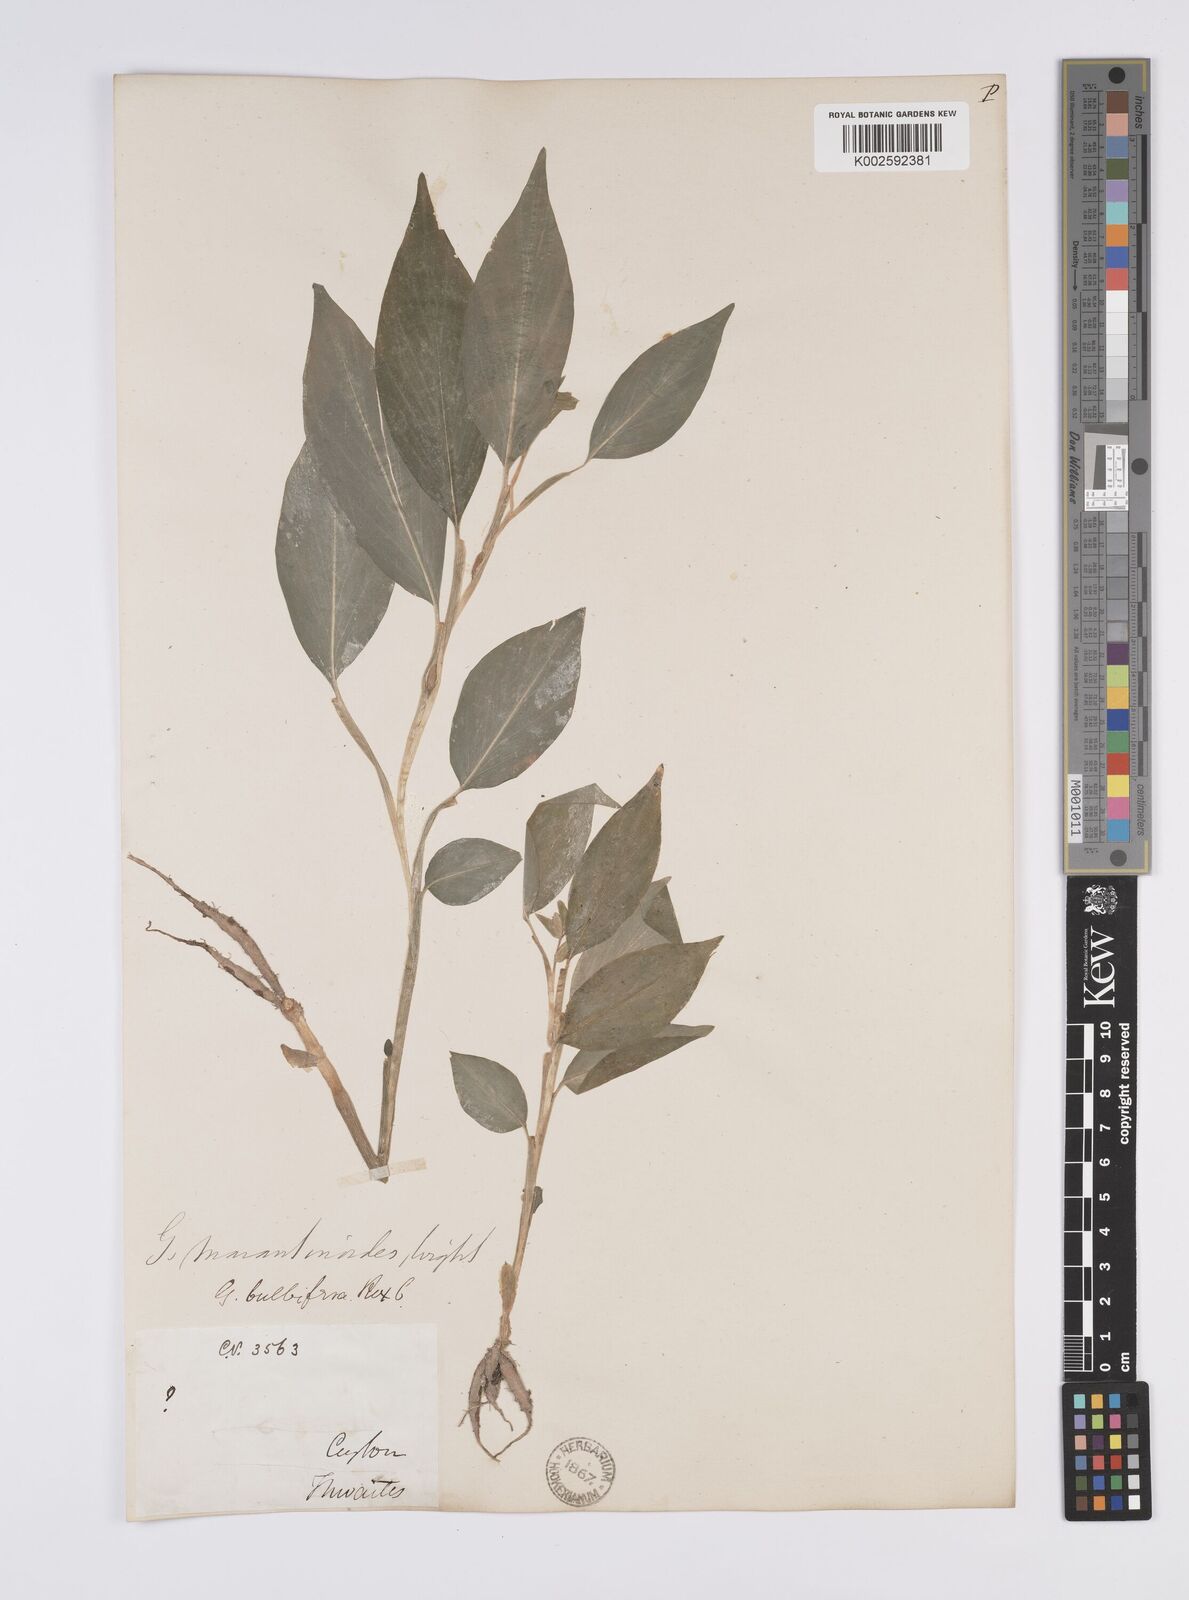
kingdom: Plantae
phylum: Tracheophyta
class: Liliopsida
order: Zingiberales
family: Zingiberaceae
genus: Globba
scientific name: Globba marantina
